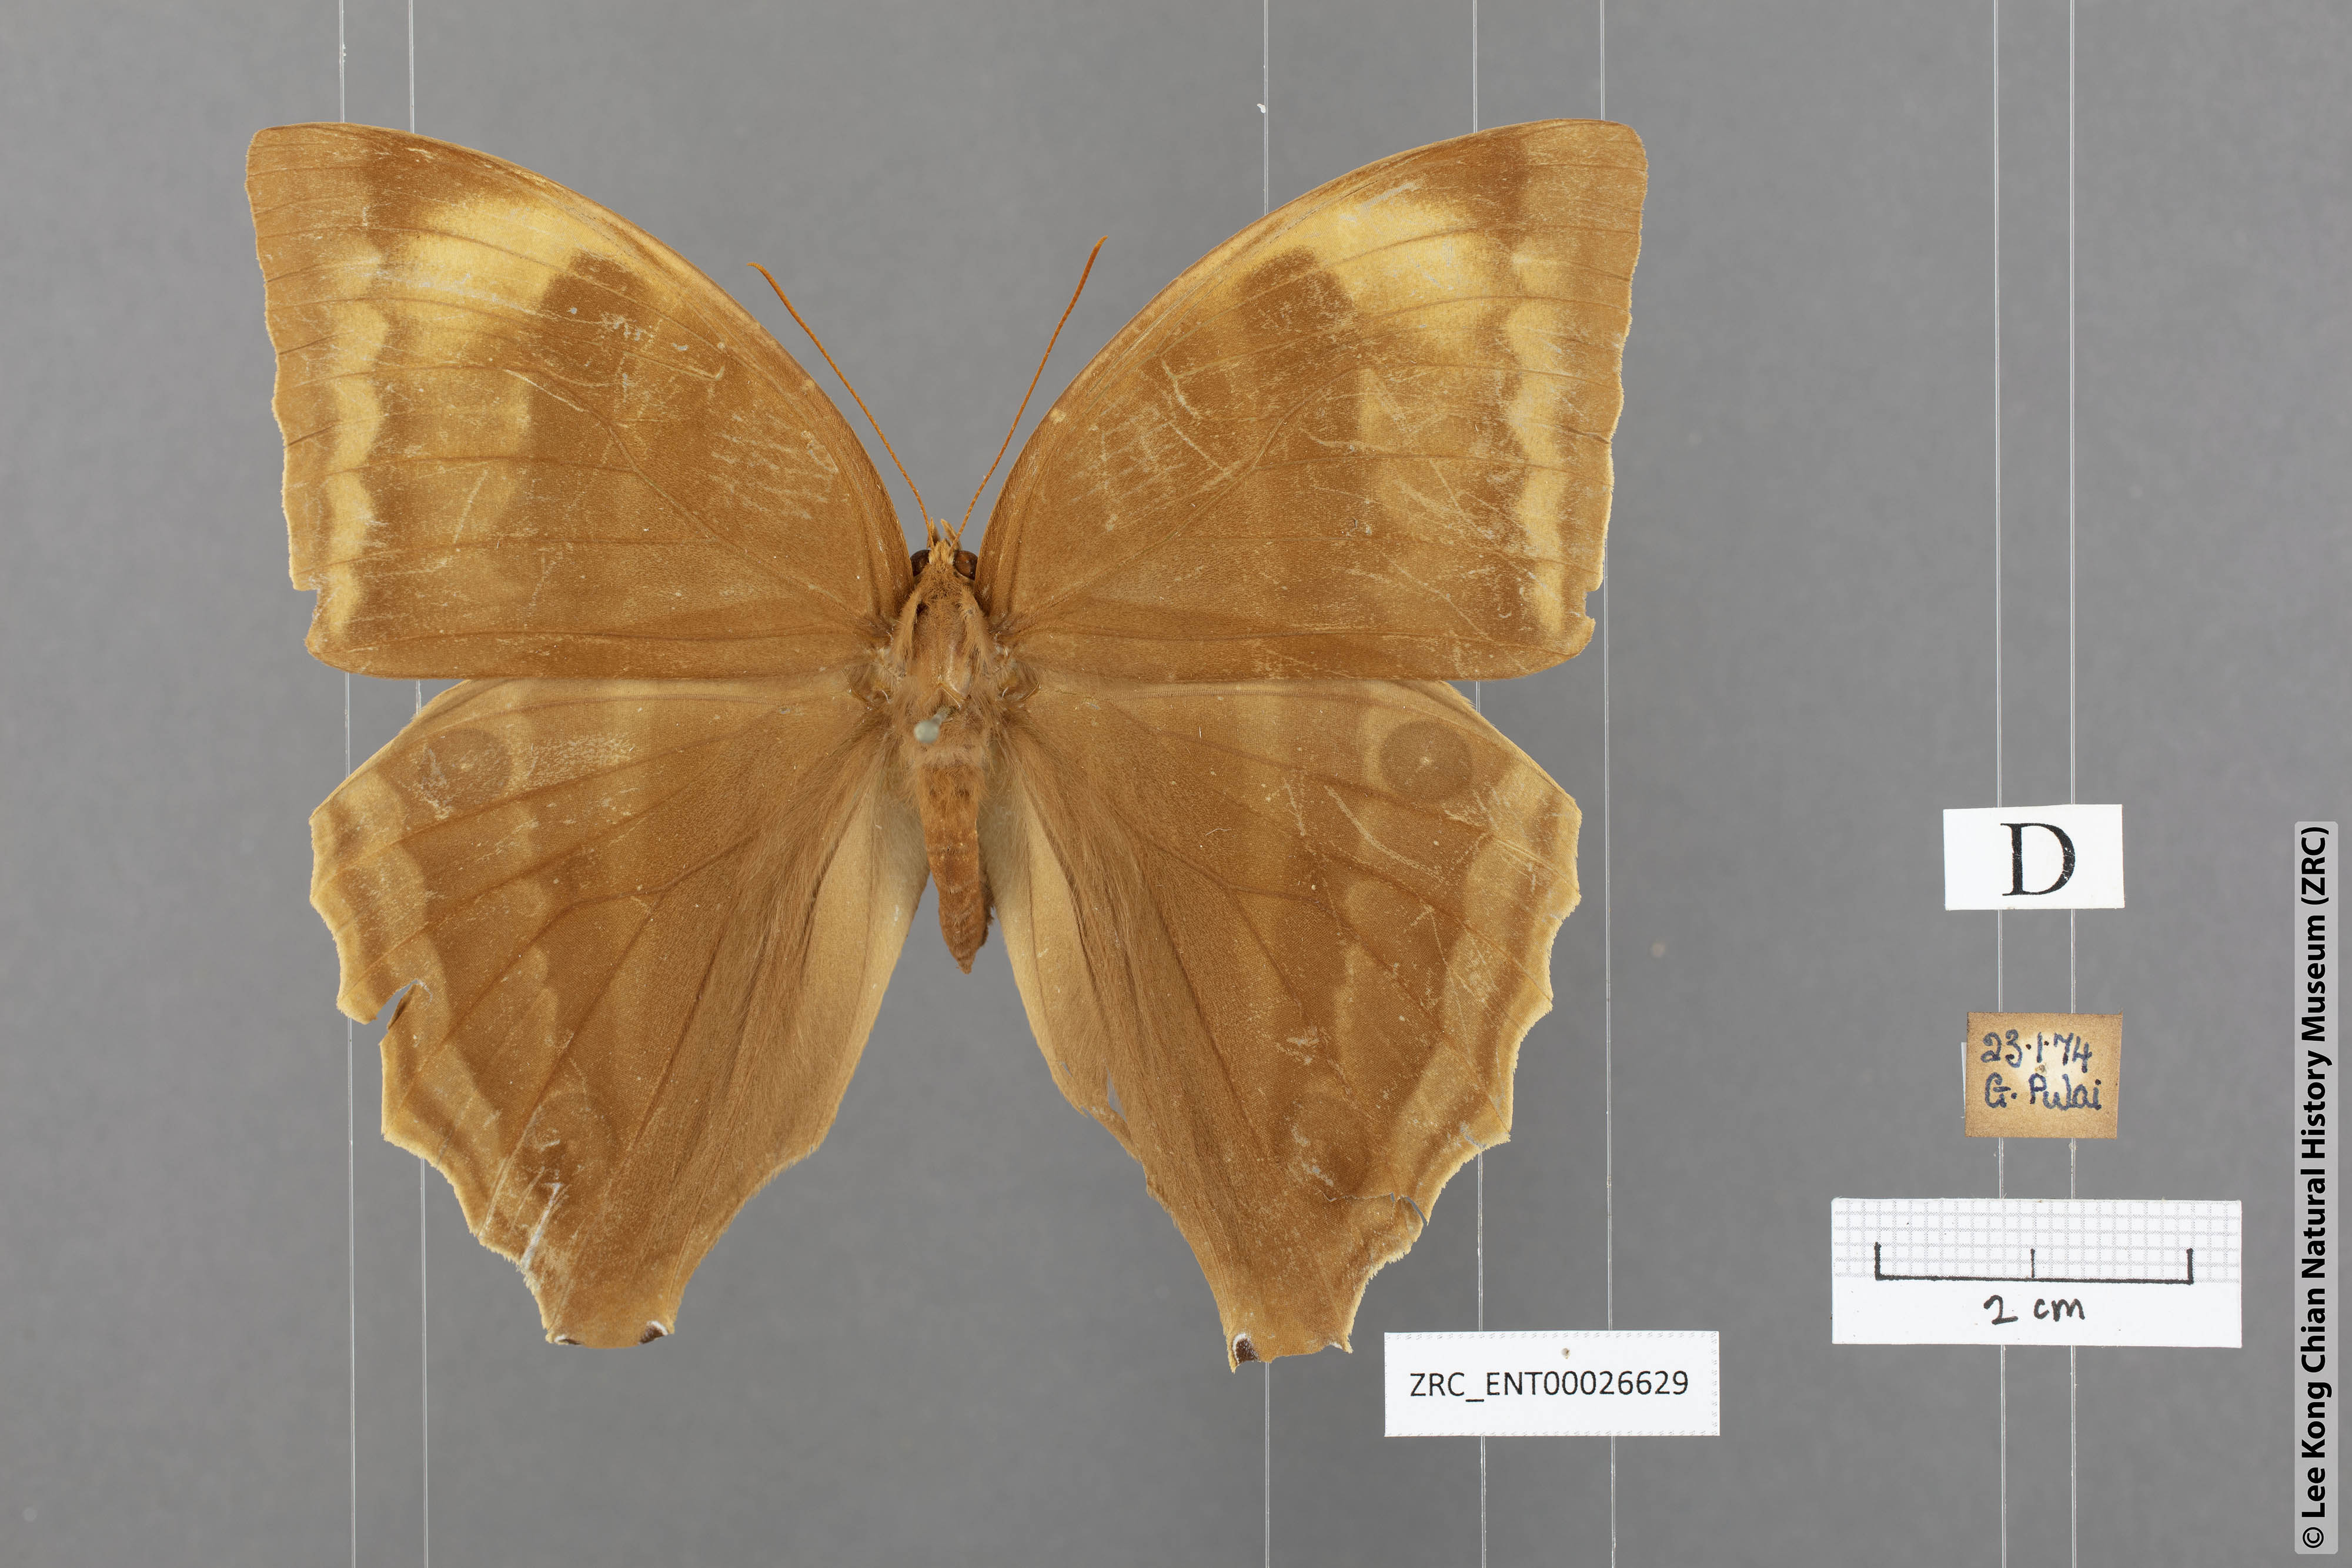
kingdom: Animalia
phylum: Arthropoda
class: Insecta
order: Lepidoptera
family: Nymphalidae
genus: Amathusia
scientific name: Amathusia phidippus
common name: Palm king
